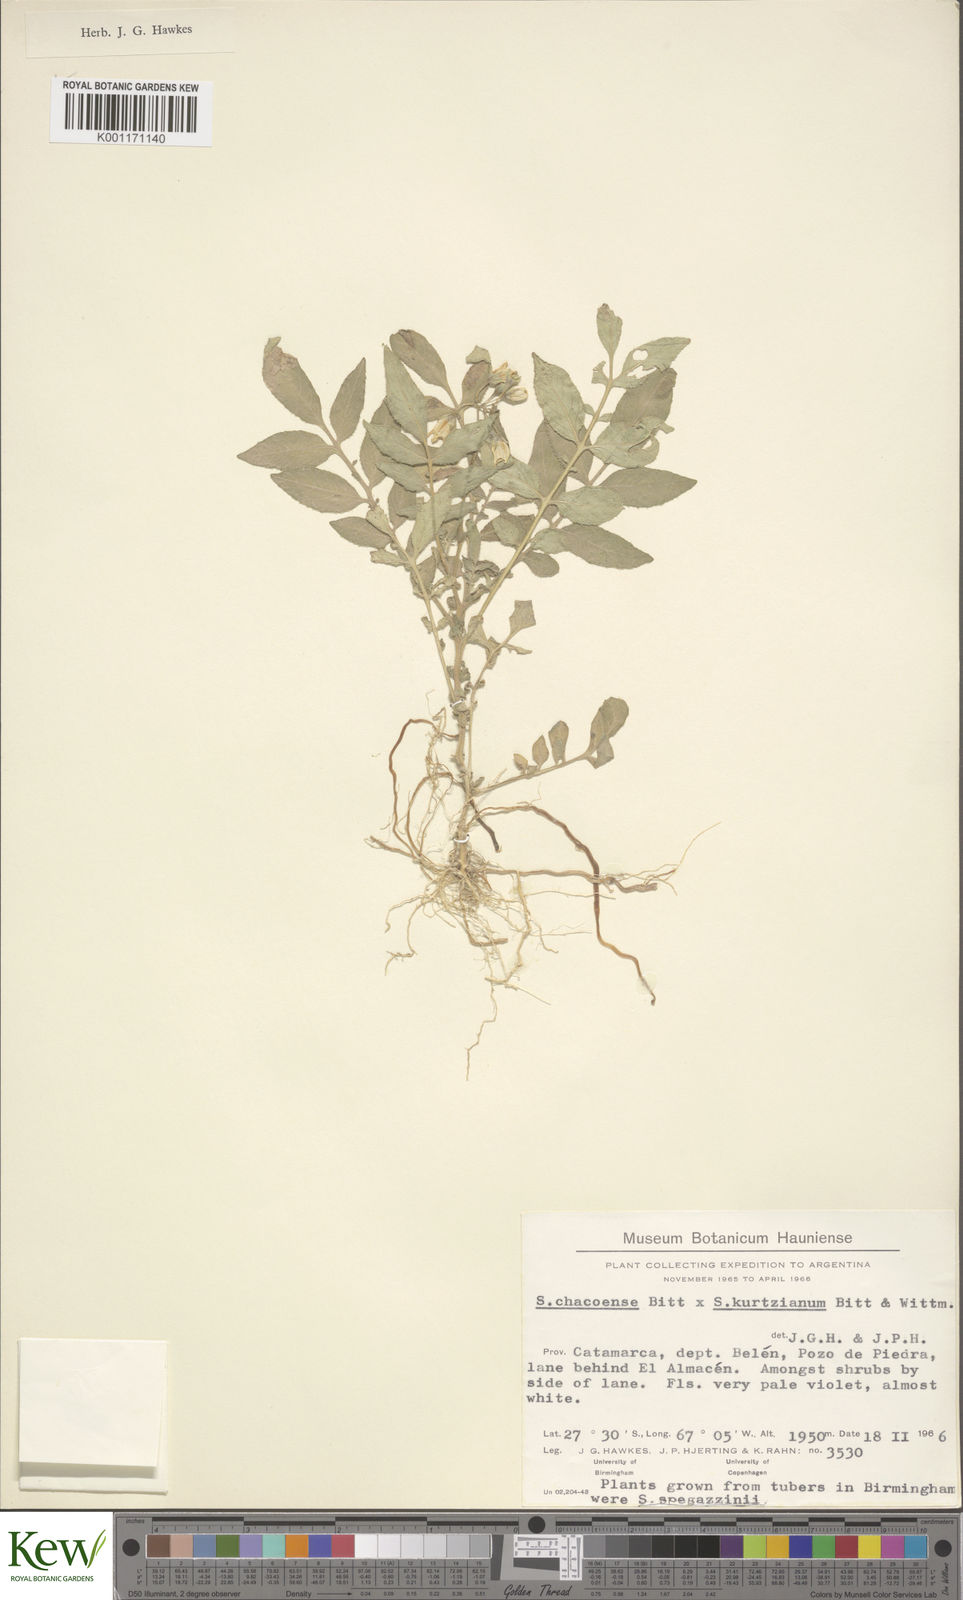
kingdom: Plantae
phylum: Tracheophyta
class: Magnoliopsida
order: Solanales
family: Solanaceae
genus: Solanum
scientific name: Solanum chacoense
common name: Chaco potato
